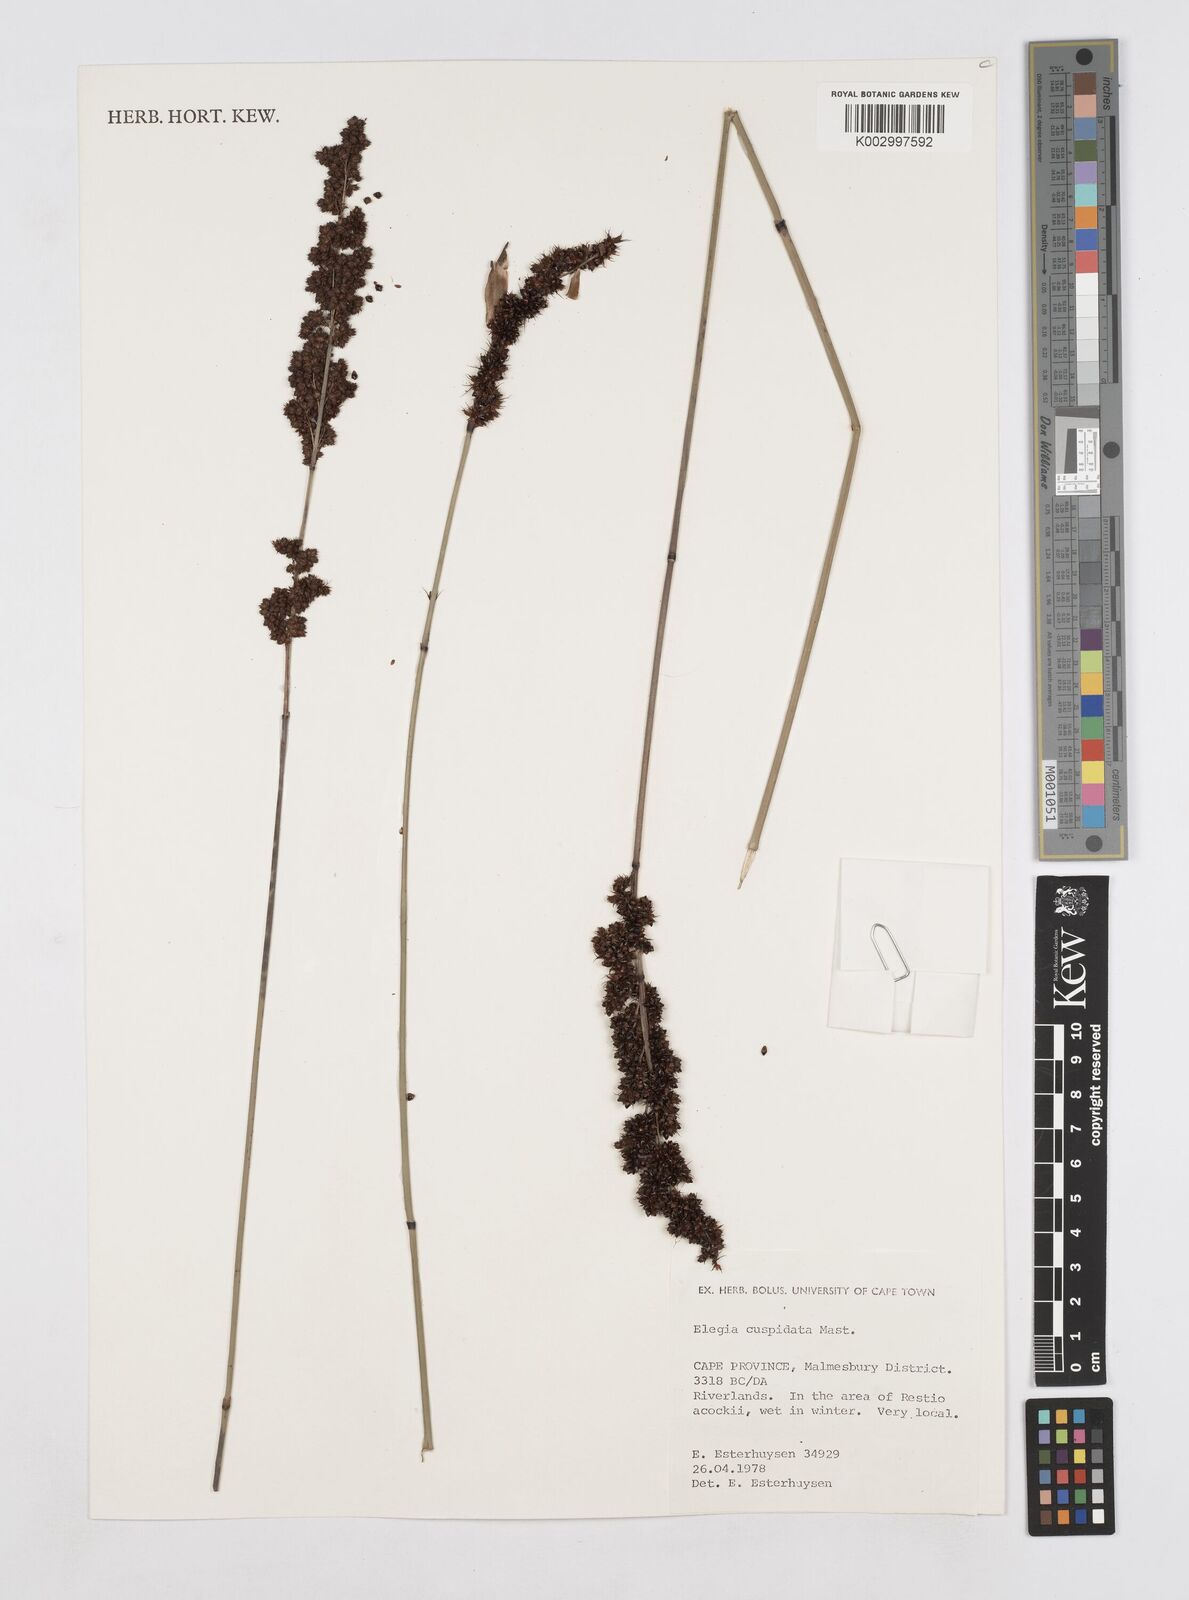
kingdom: Plantae
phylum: Tracheophyta
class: Liliopsida
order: Poales
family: Restionaceae
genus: Elegia
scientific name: Elegia cuspidata
